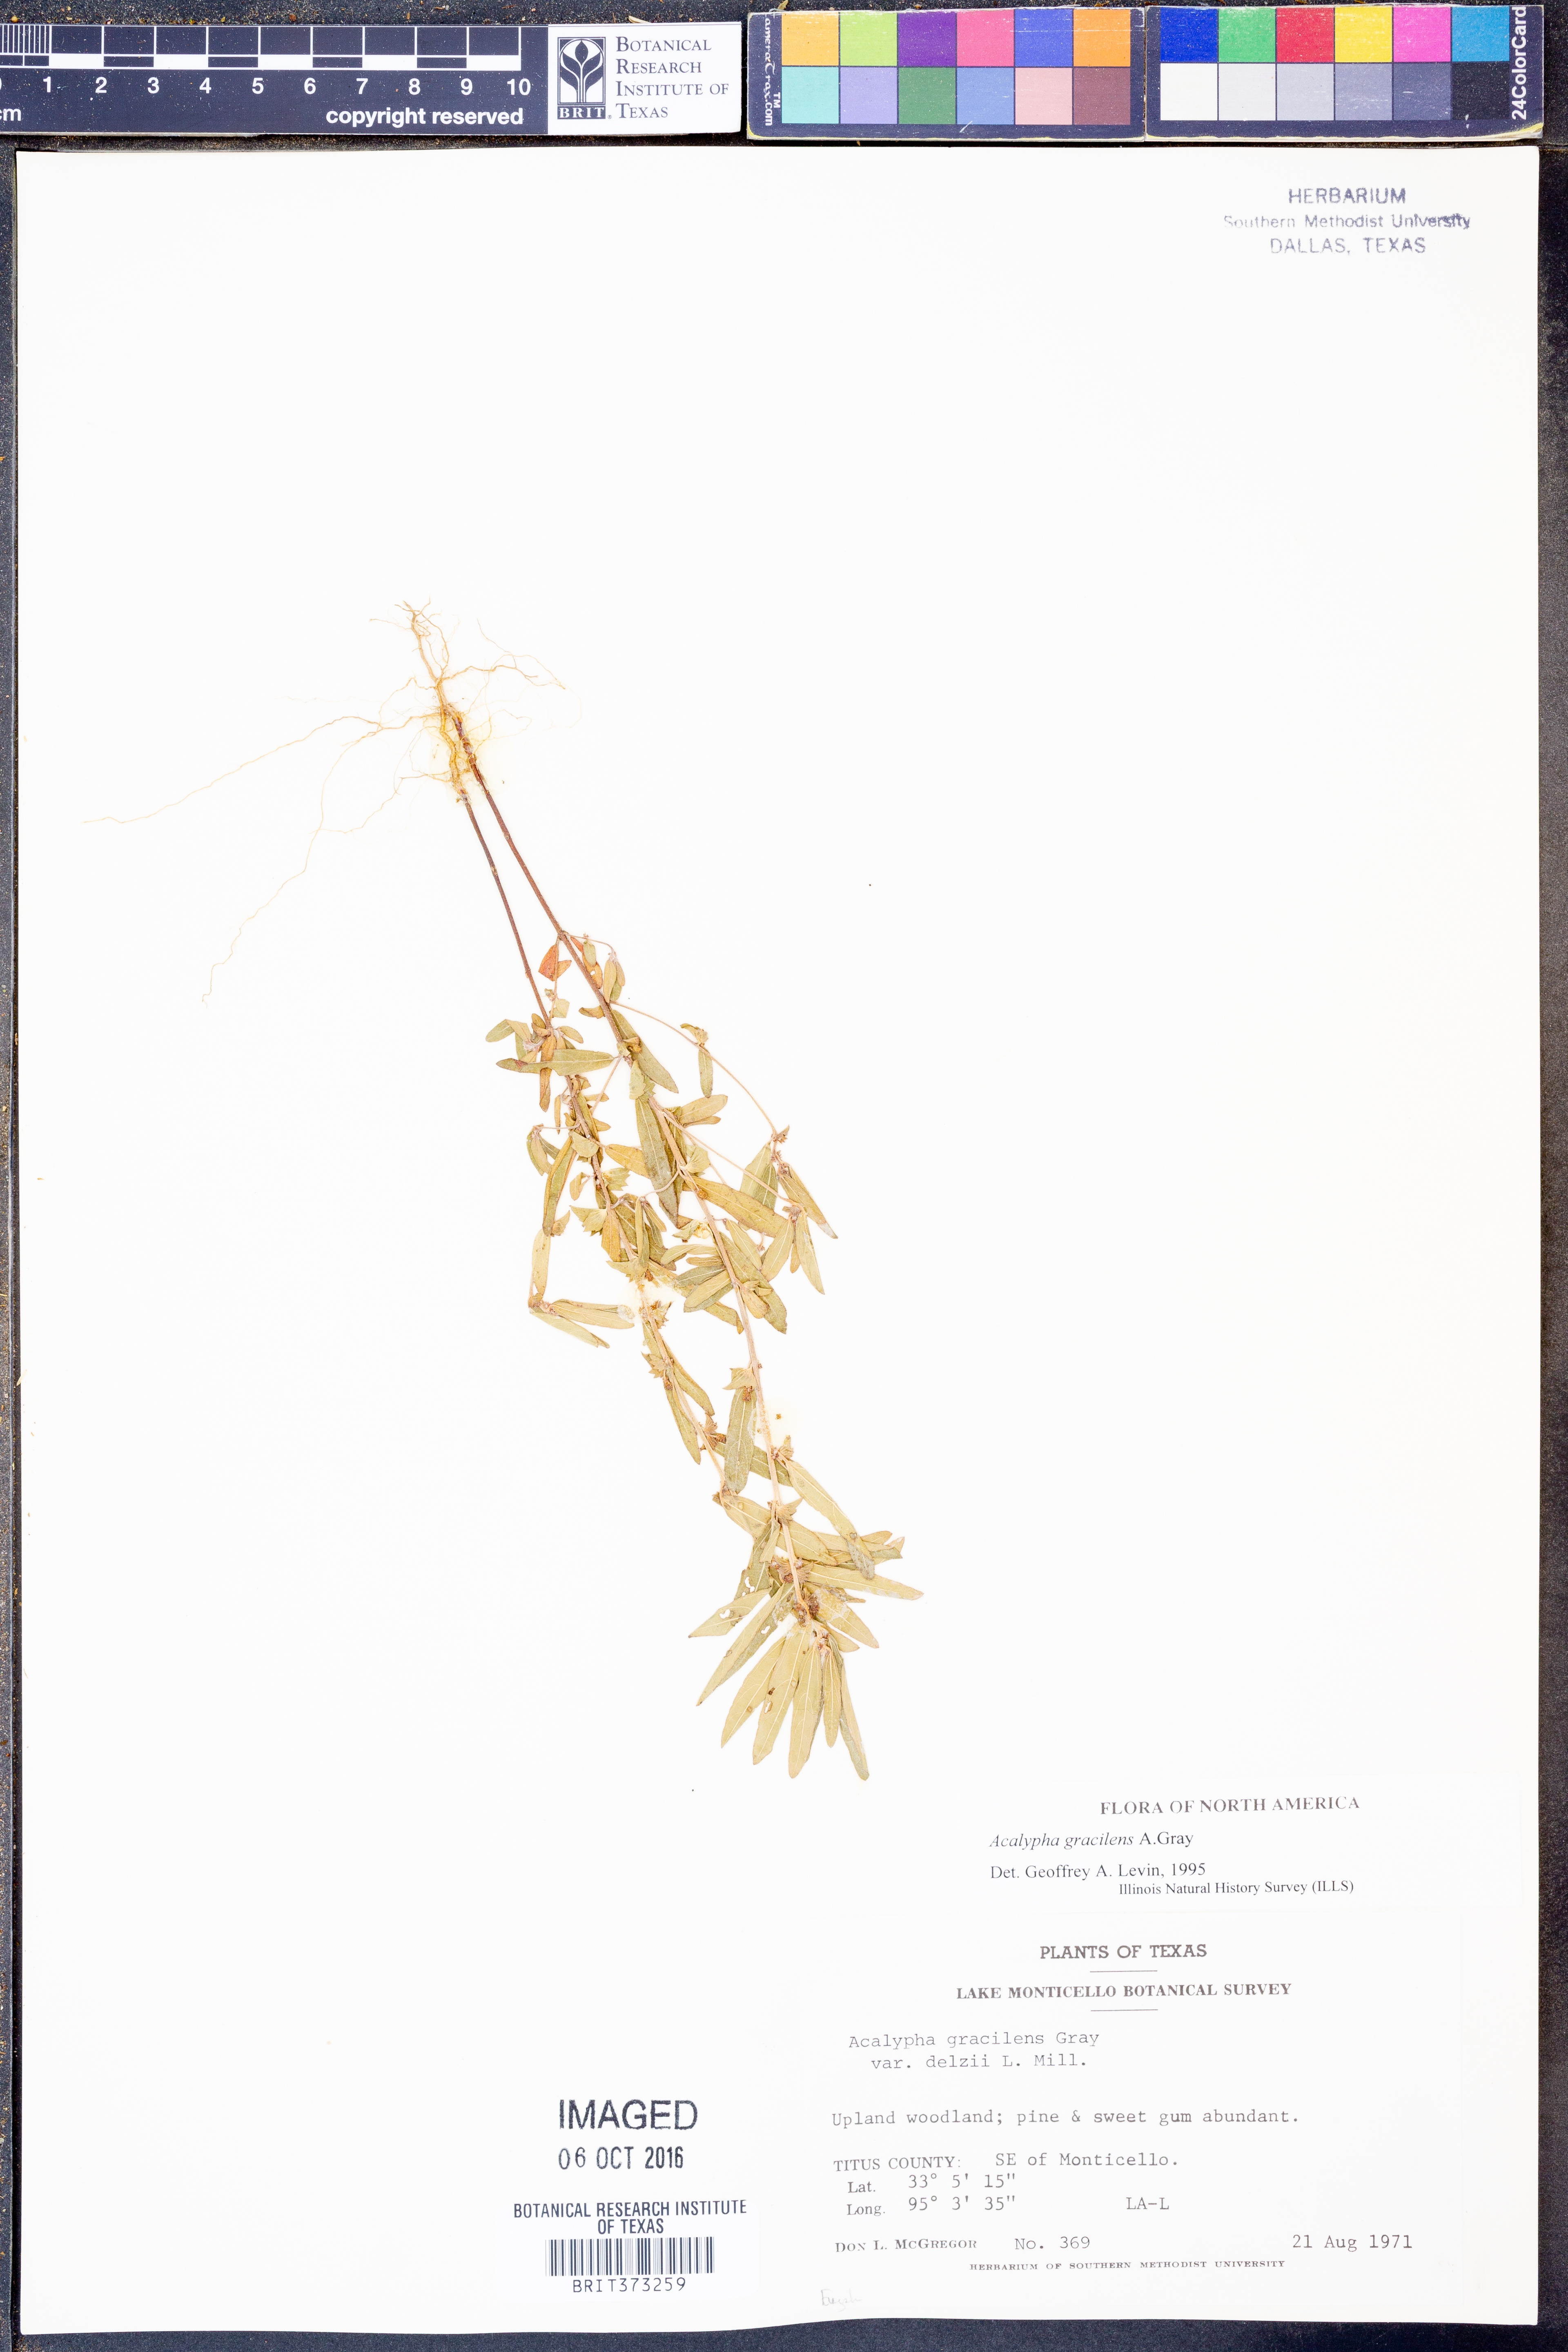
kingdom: Plantae
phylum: Tracheophyta
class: Magnoliopsida
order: Malpighiales
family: Euphorbiaceae
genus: Acalypha
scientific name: Acalypha gracilens
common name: Slender three-seeded mercury
